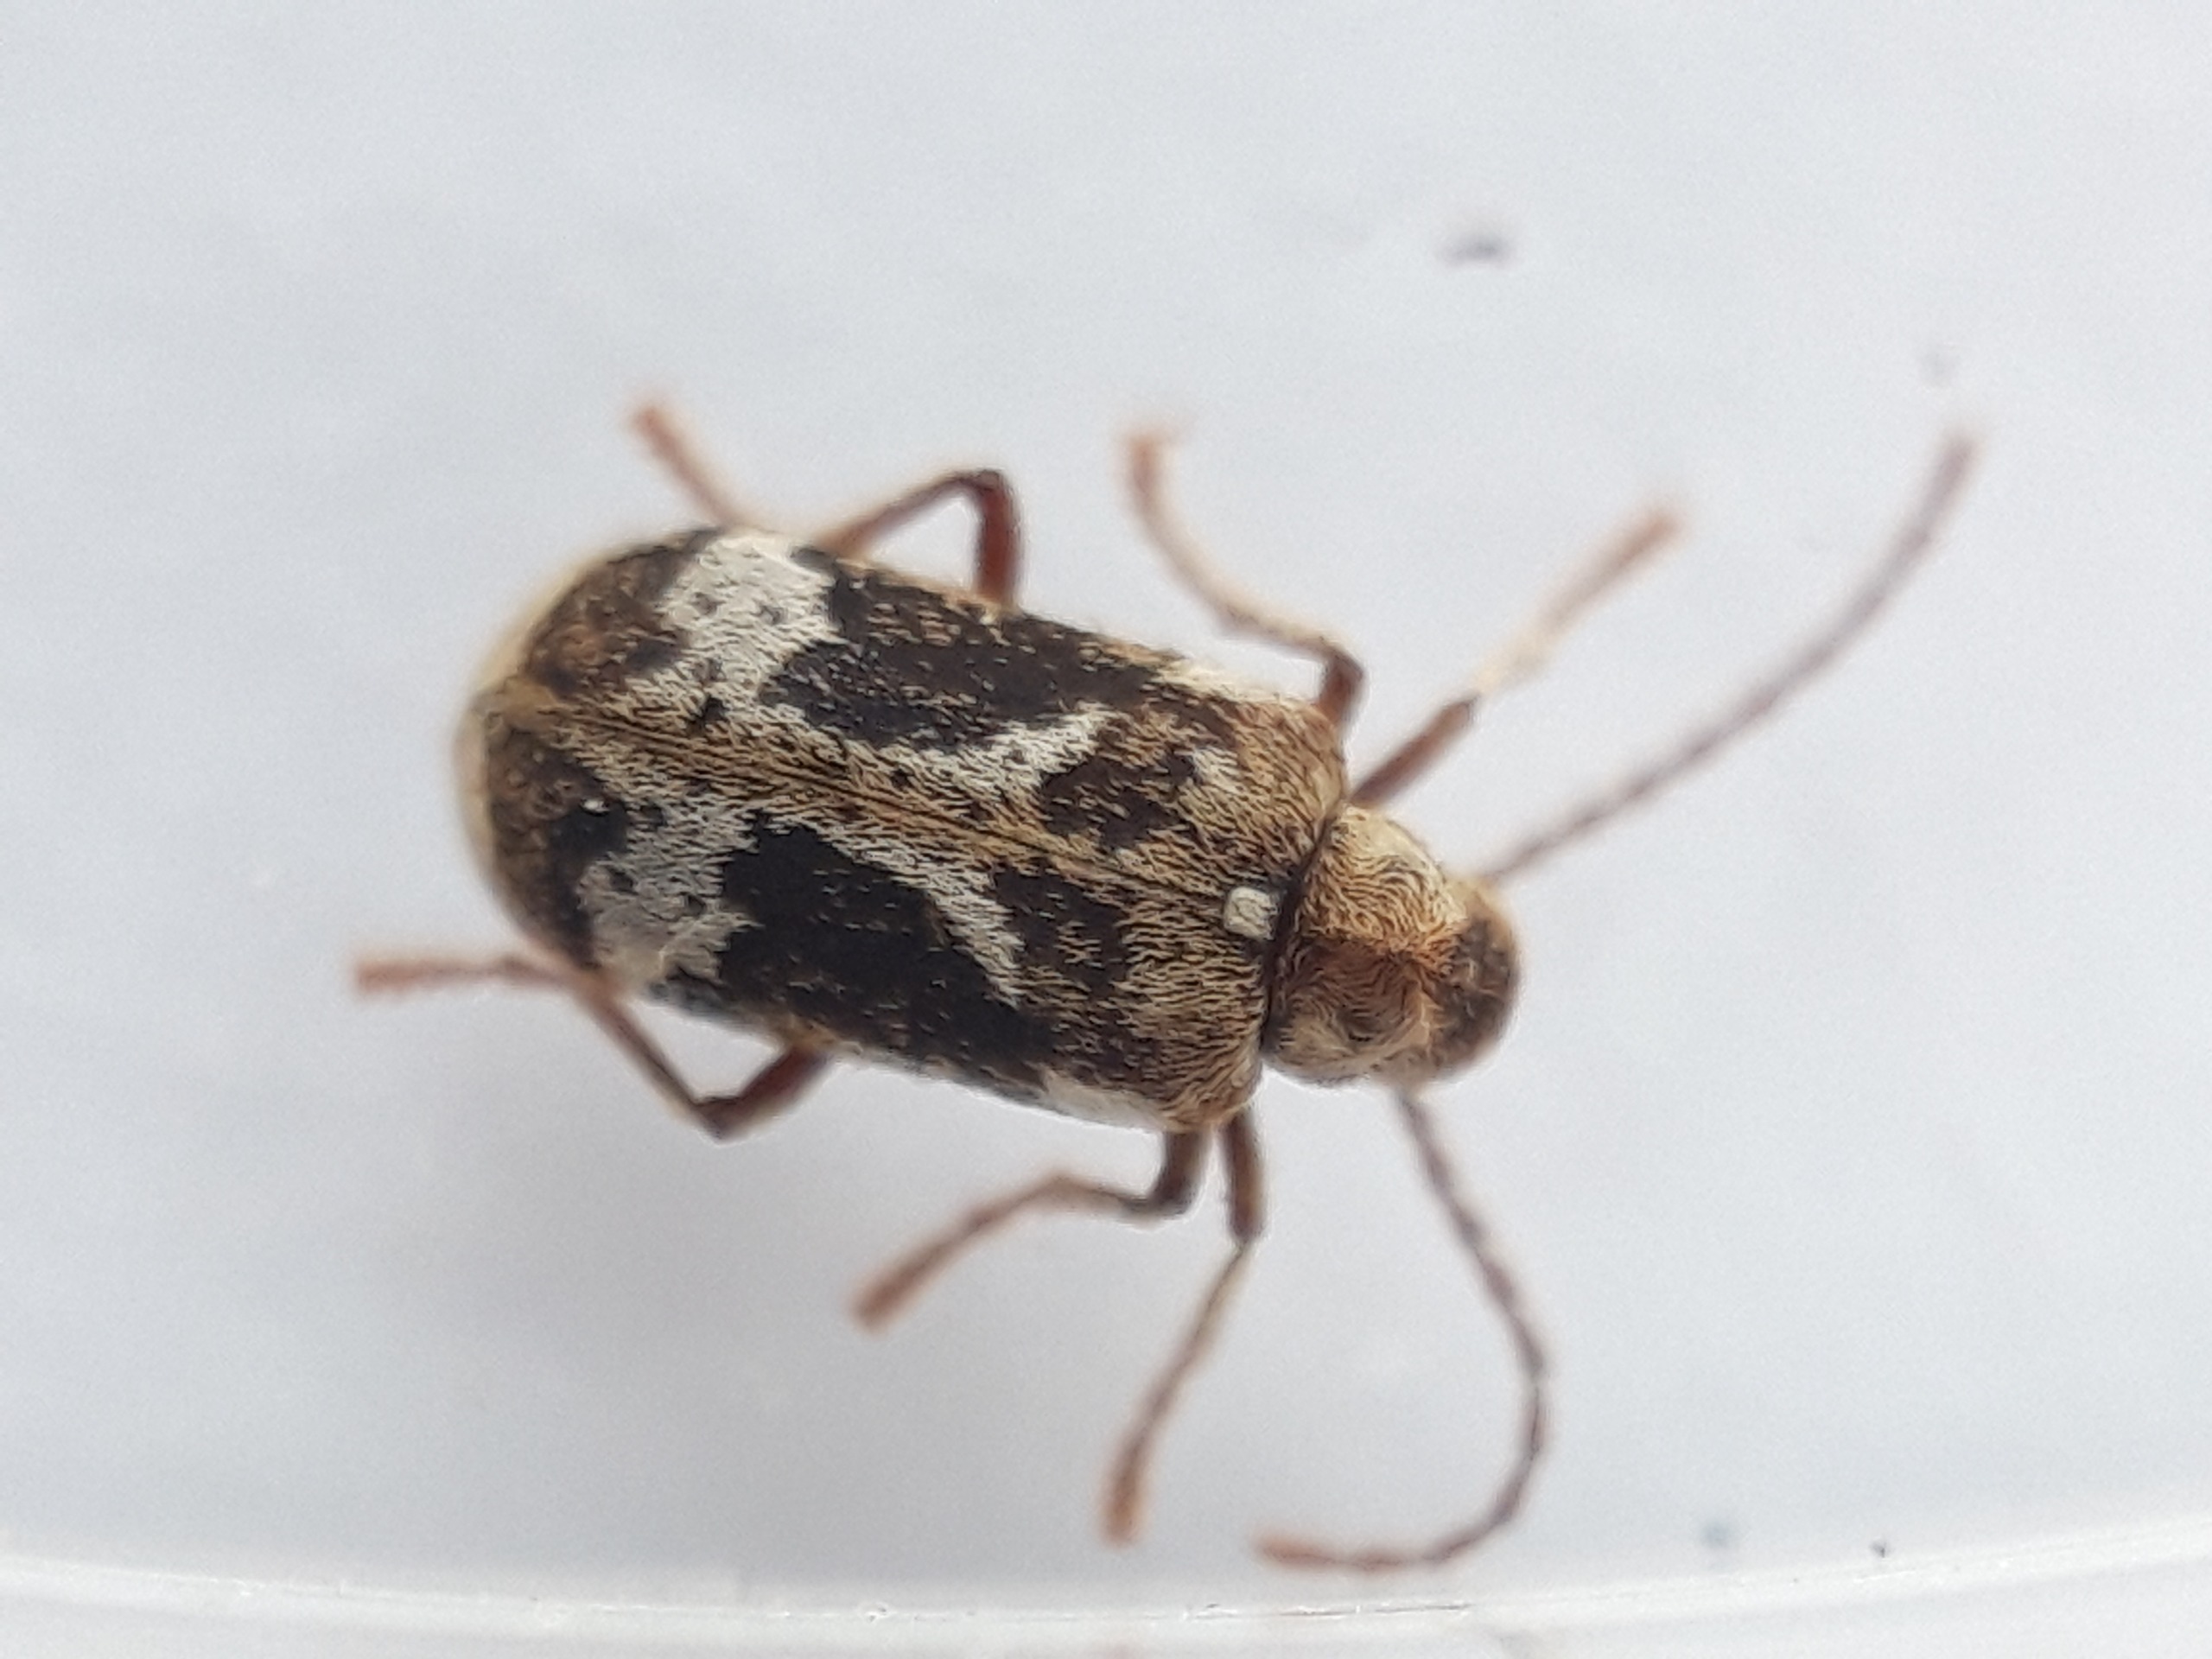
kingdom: Animalia
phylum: Arthropoda
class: Insecta
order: Coleoptera
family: Anobiidae
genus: Ptinomorphus
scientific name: Ptinomorphus imperialis
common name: Hvidbroget borebille
